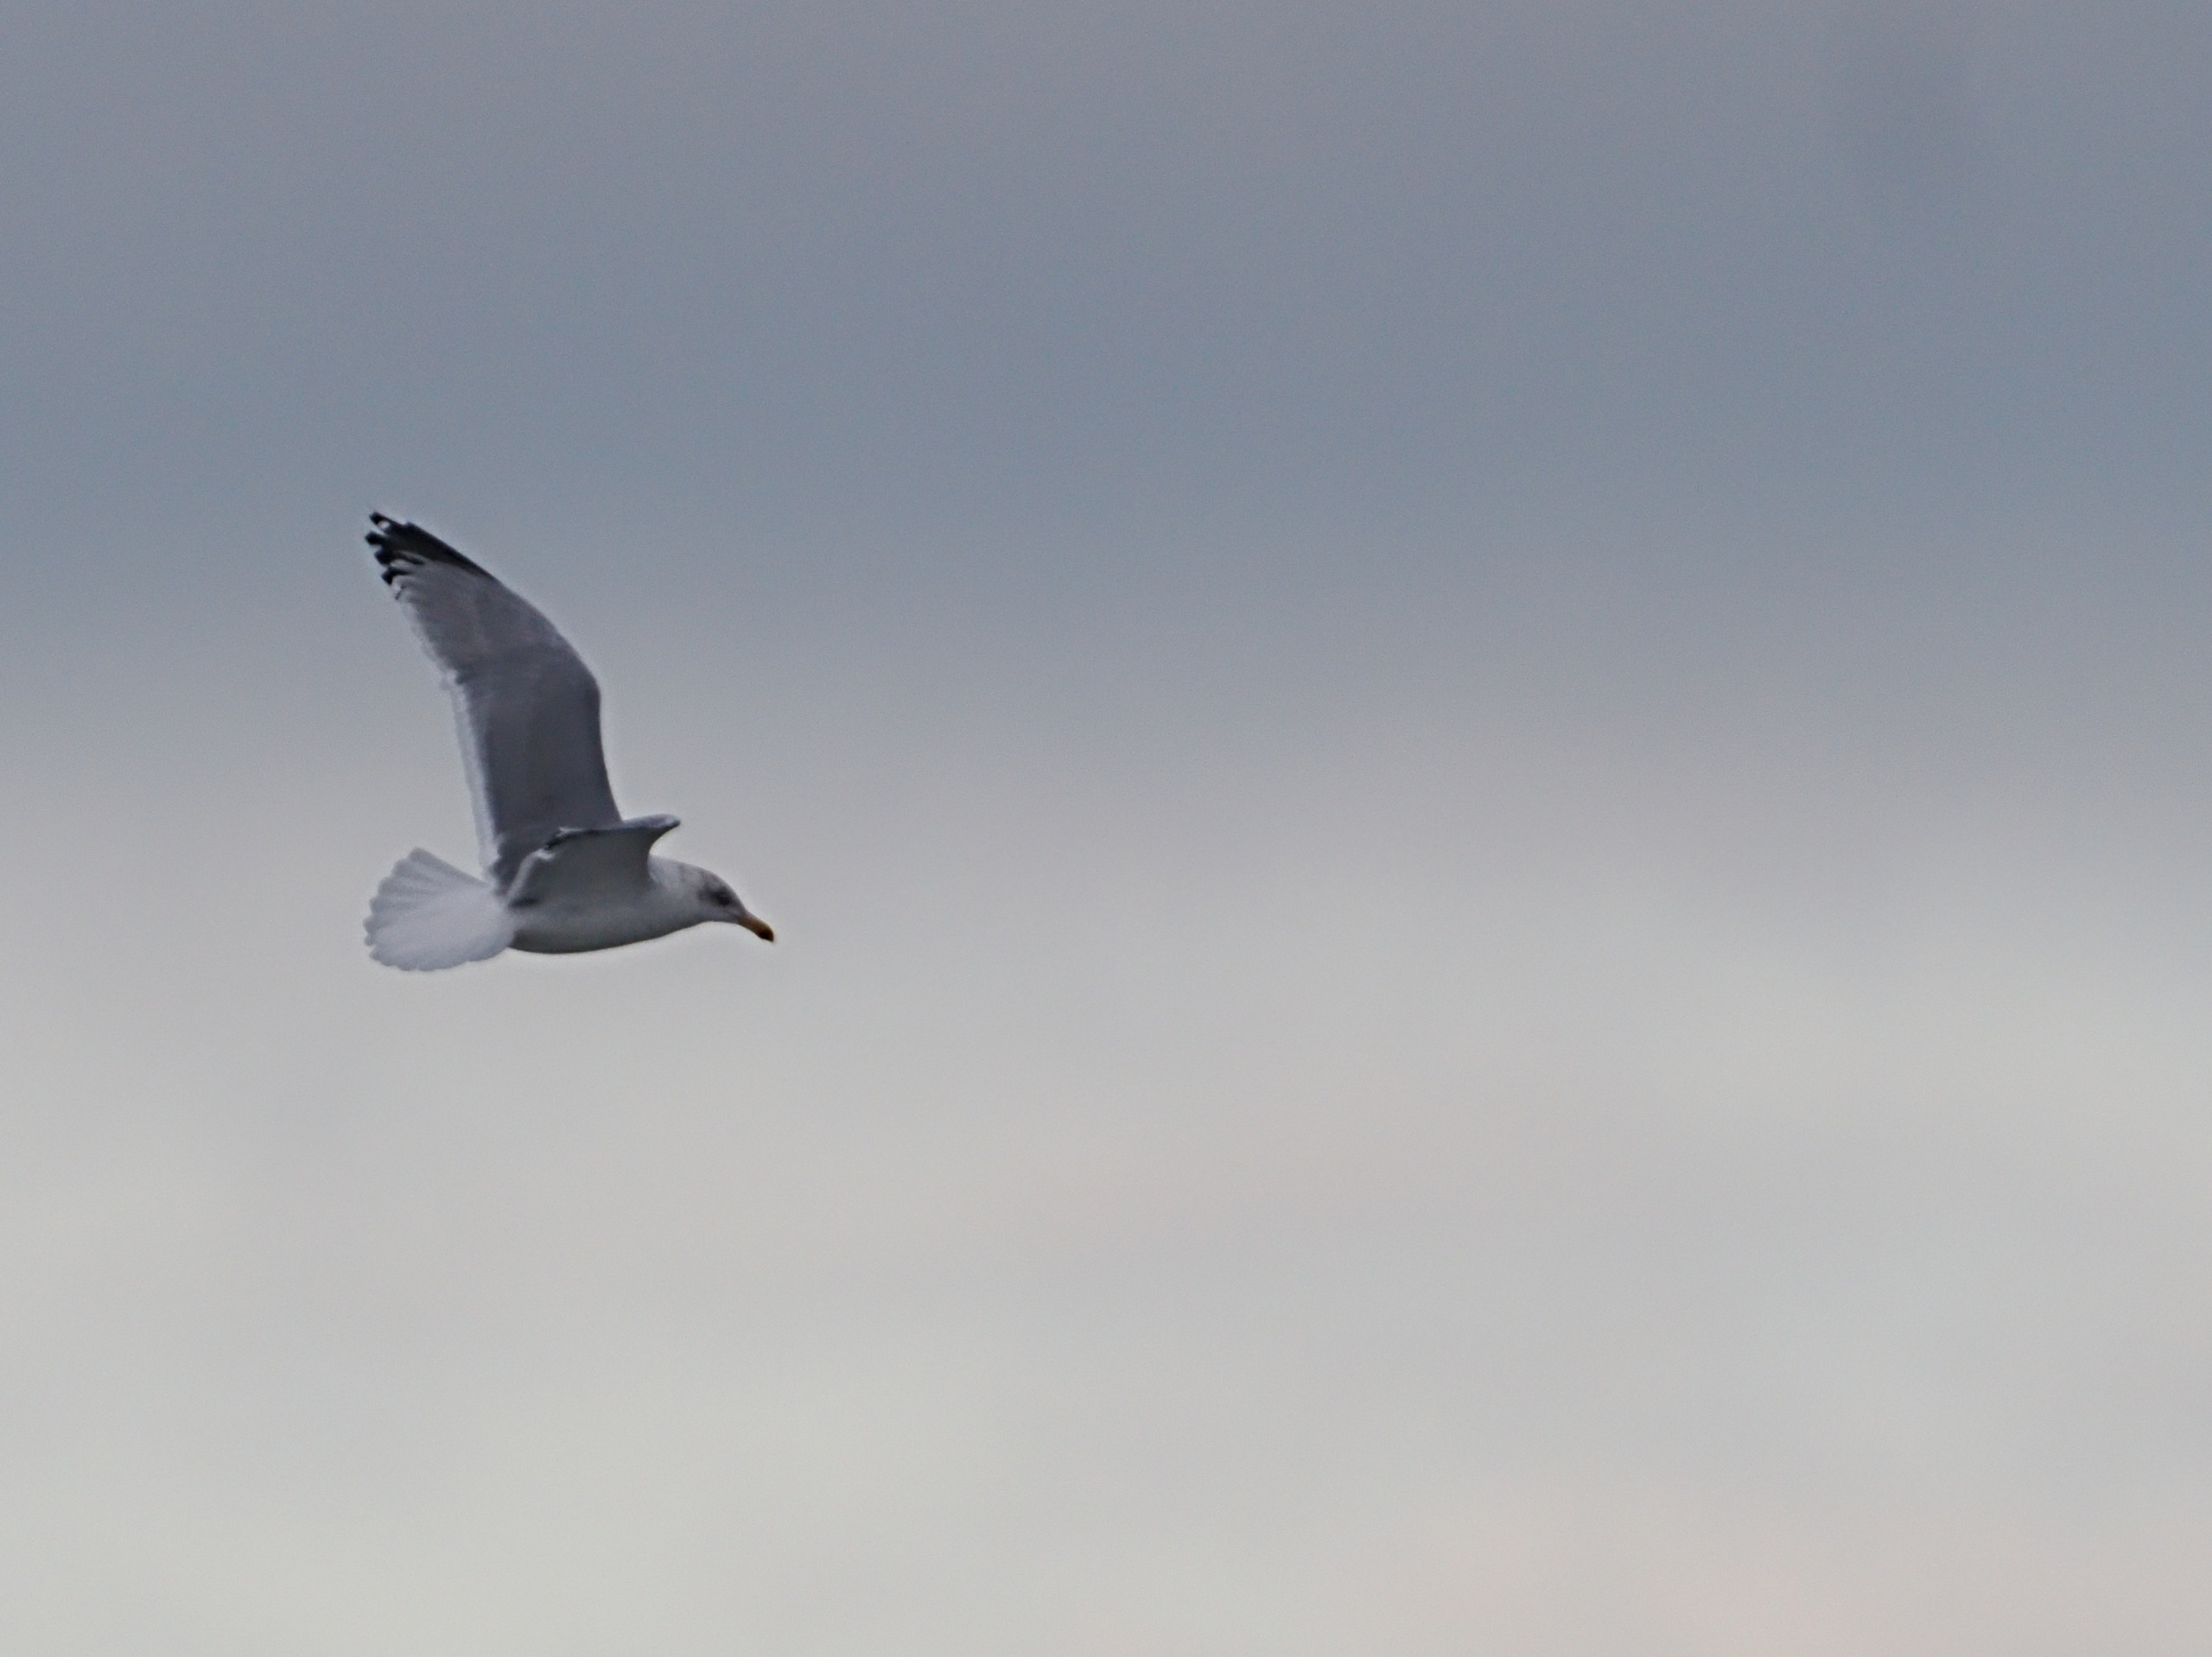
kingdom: Animalia
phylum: Chordata
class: Aves
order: Charadriiformes
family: Laridae
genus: Larus
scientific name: Larus argentatus
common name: Sølvmåge
